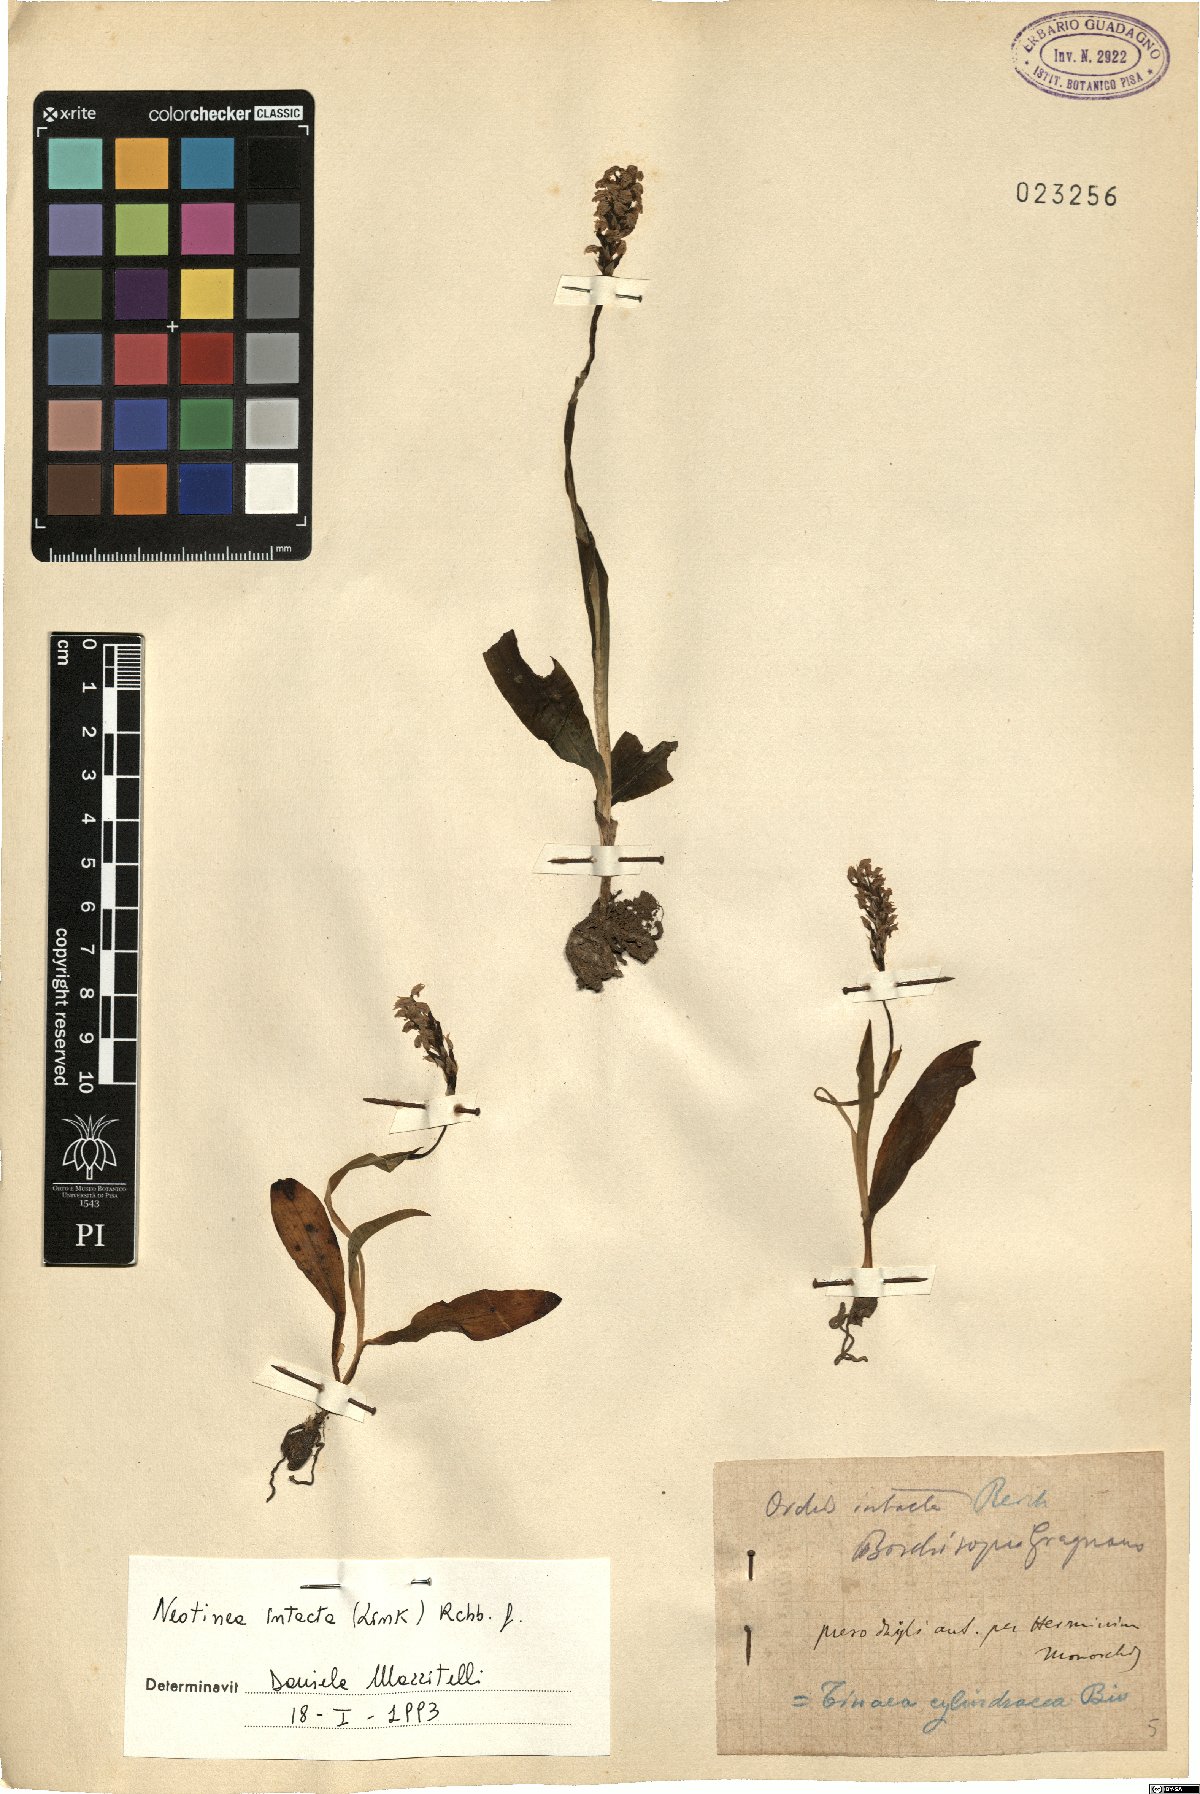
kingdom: Plantae
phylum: Tracheophyta
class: Liliopsida
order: Asparagales
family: Orchidaceae
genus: Neotinea
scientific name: Neotinea maculata
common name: Dense-flowered orchid
